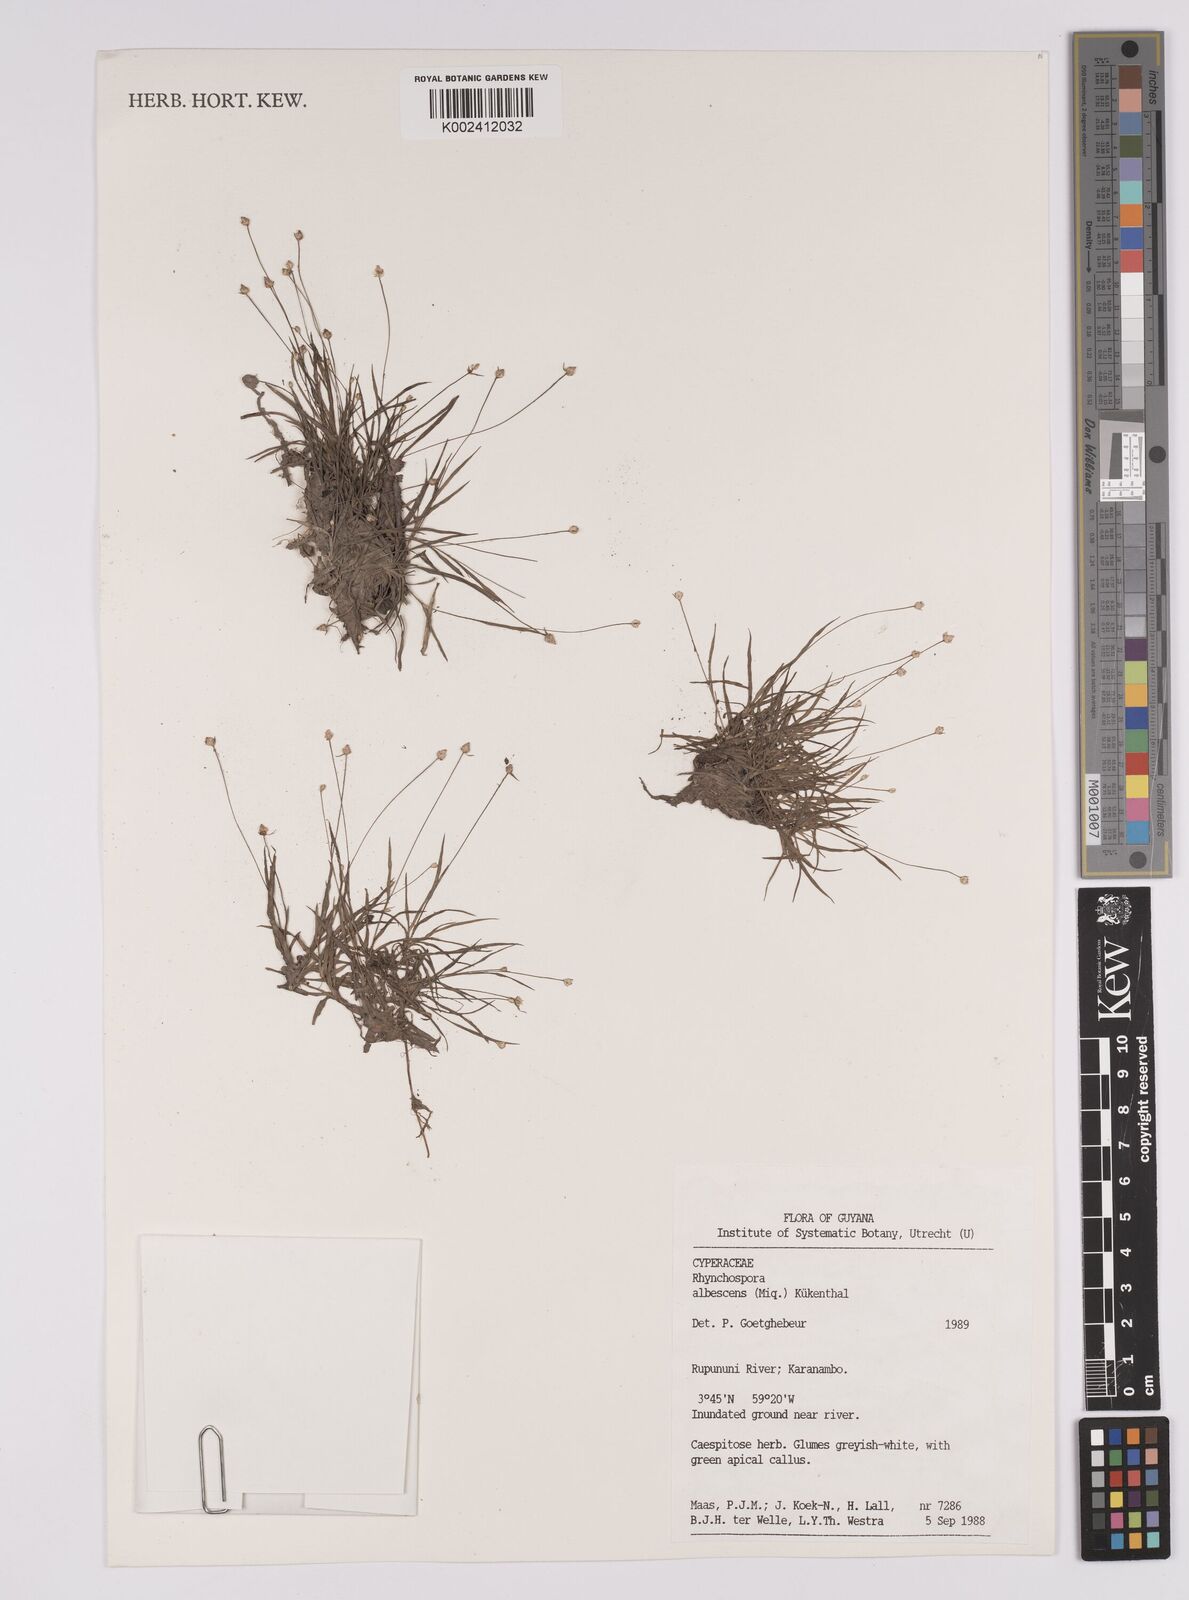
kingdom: Plantae
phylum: Tracheophyta
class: Liliopsida
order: Poales
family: Cyperaceae
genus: Rhynchospora
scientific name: Rhynchospora albescens
